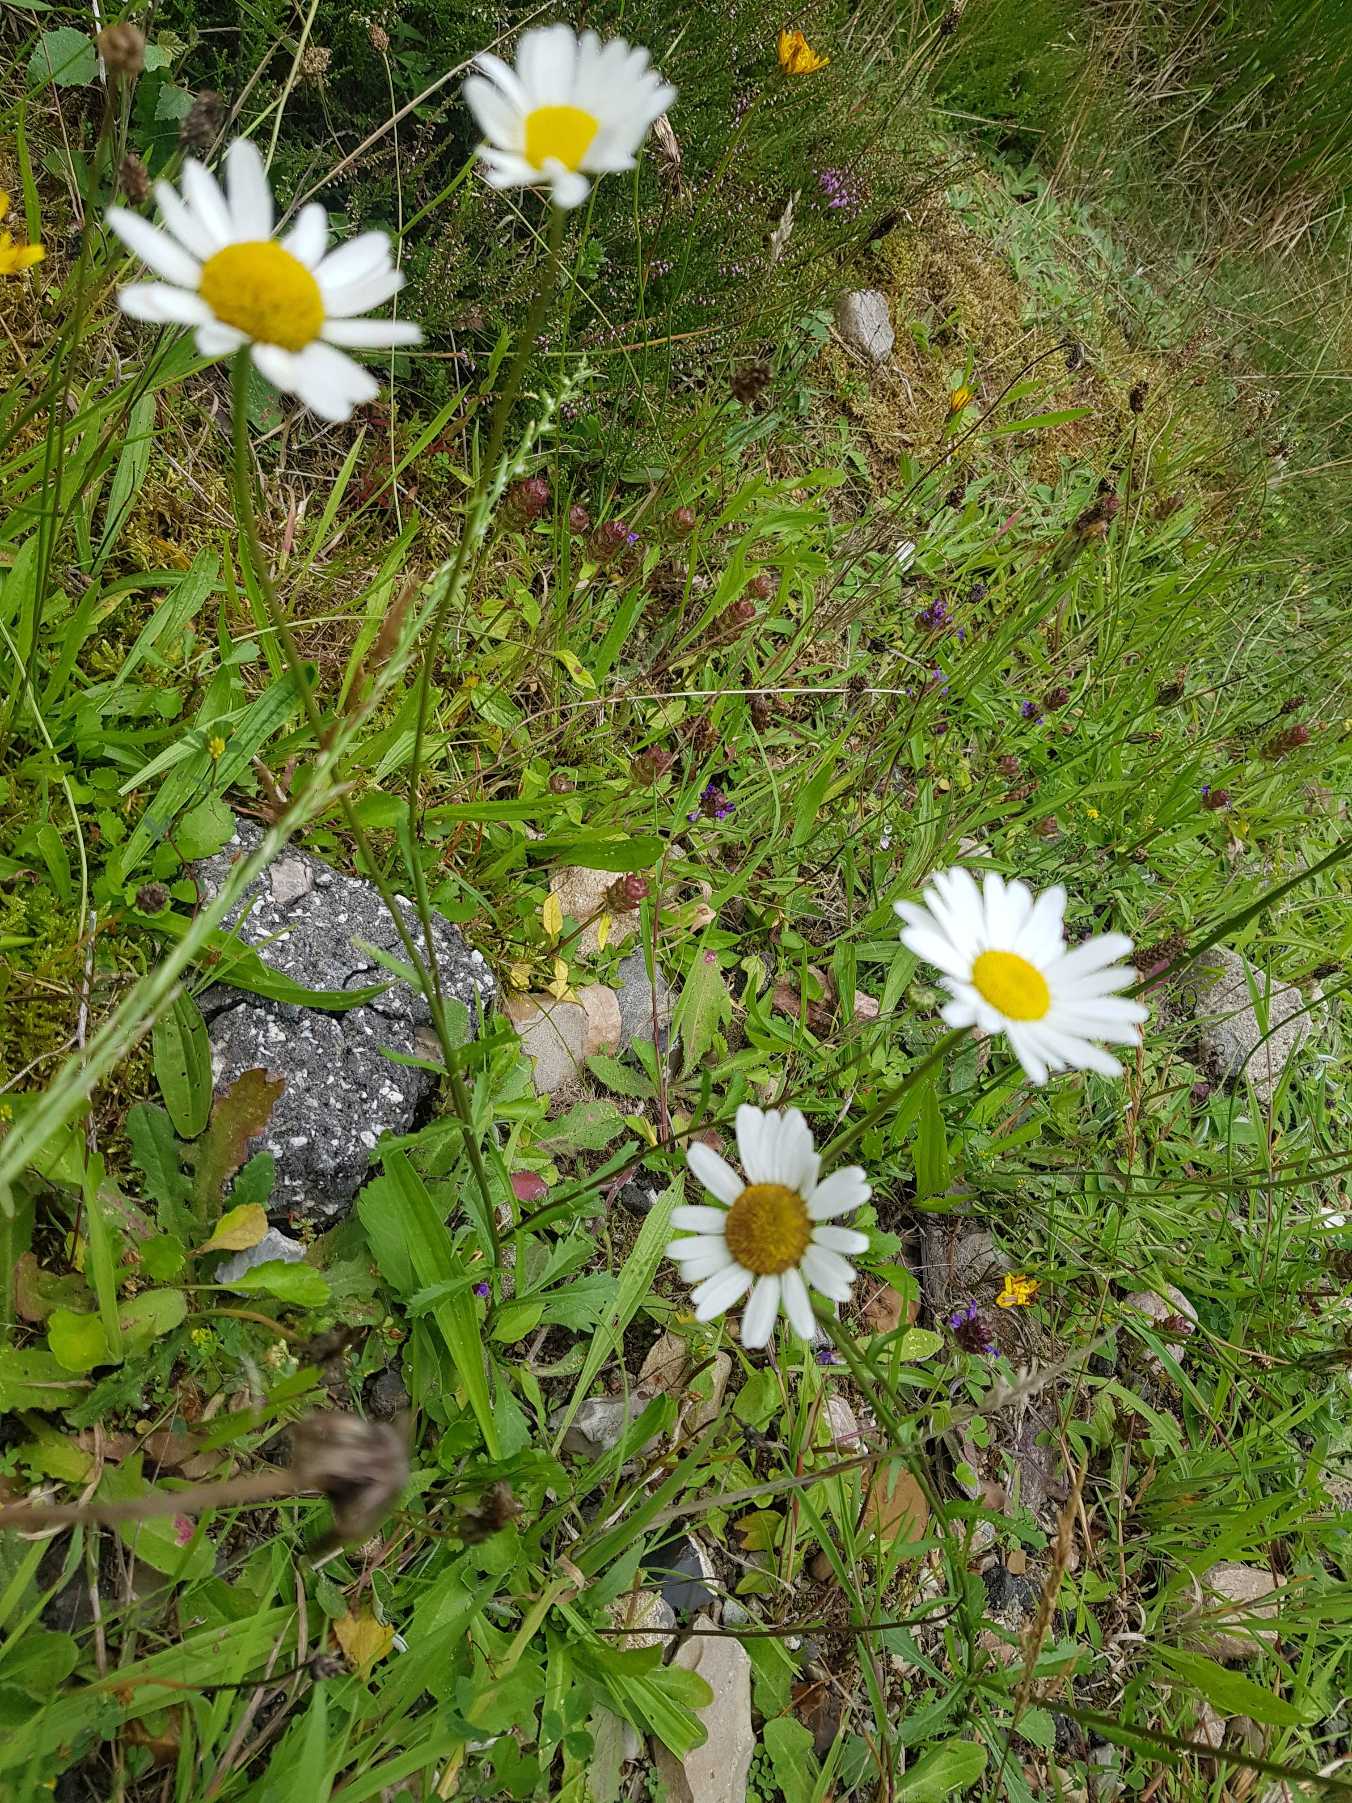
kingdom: Plantae
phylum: Tracheophyta
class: Magnoliopsida
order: Asterales
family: Asteraceae
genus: Leucanthemum
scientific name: Leucanthemum vulgare
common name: Hvid okseøje
